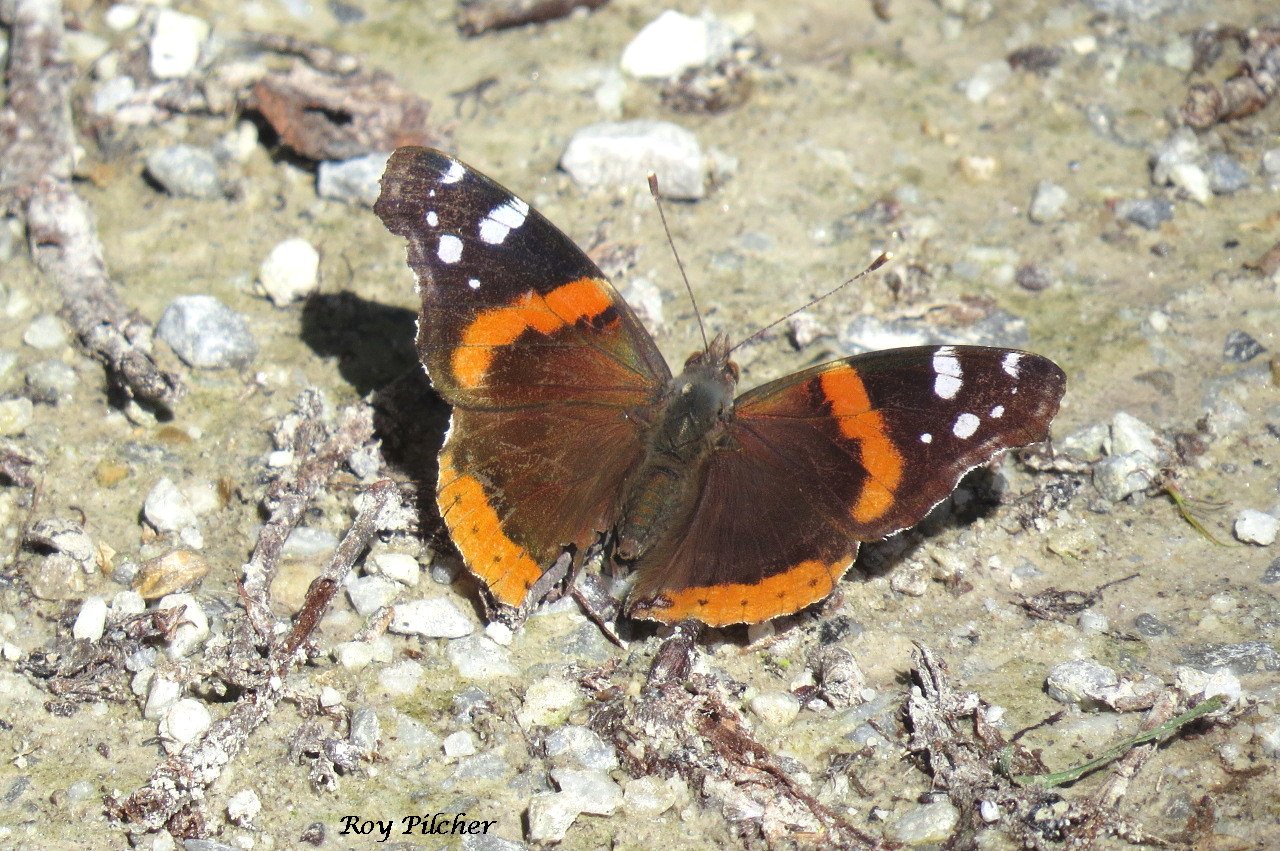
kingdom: Animalia
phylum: Arthropoda
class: Insecta
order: Lepidoptera
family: Nymphalidae
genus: Vanessa
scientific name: Vanessa atalanta
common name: Red Admiral
